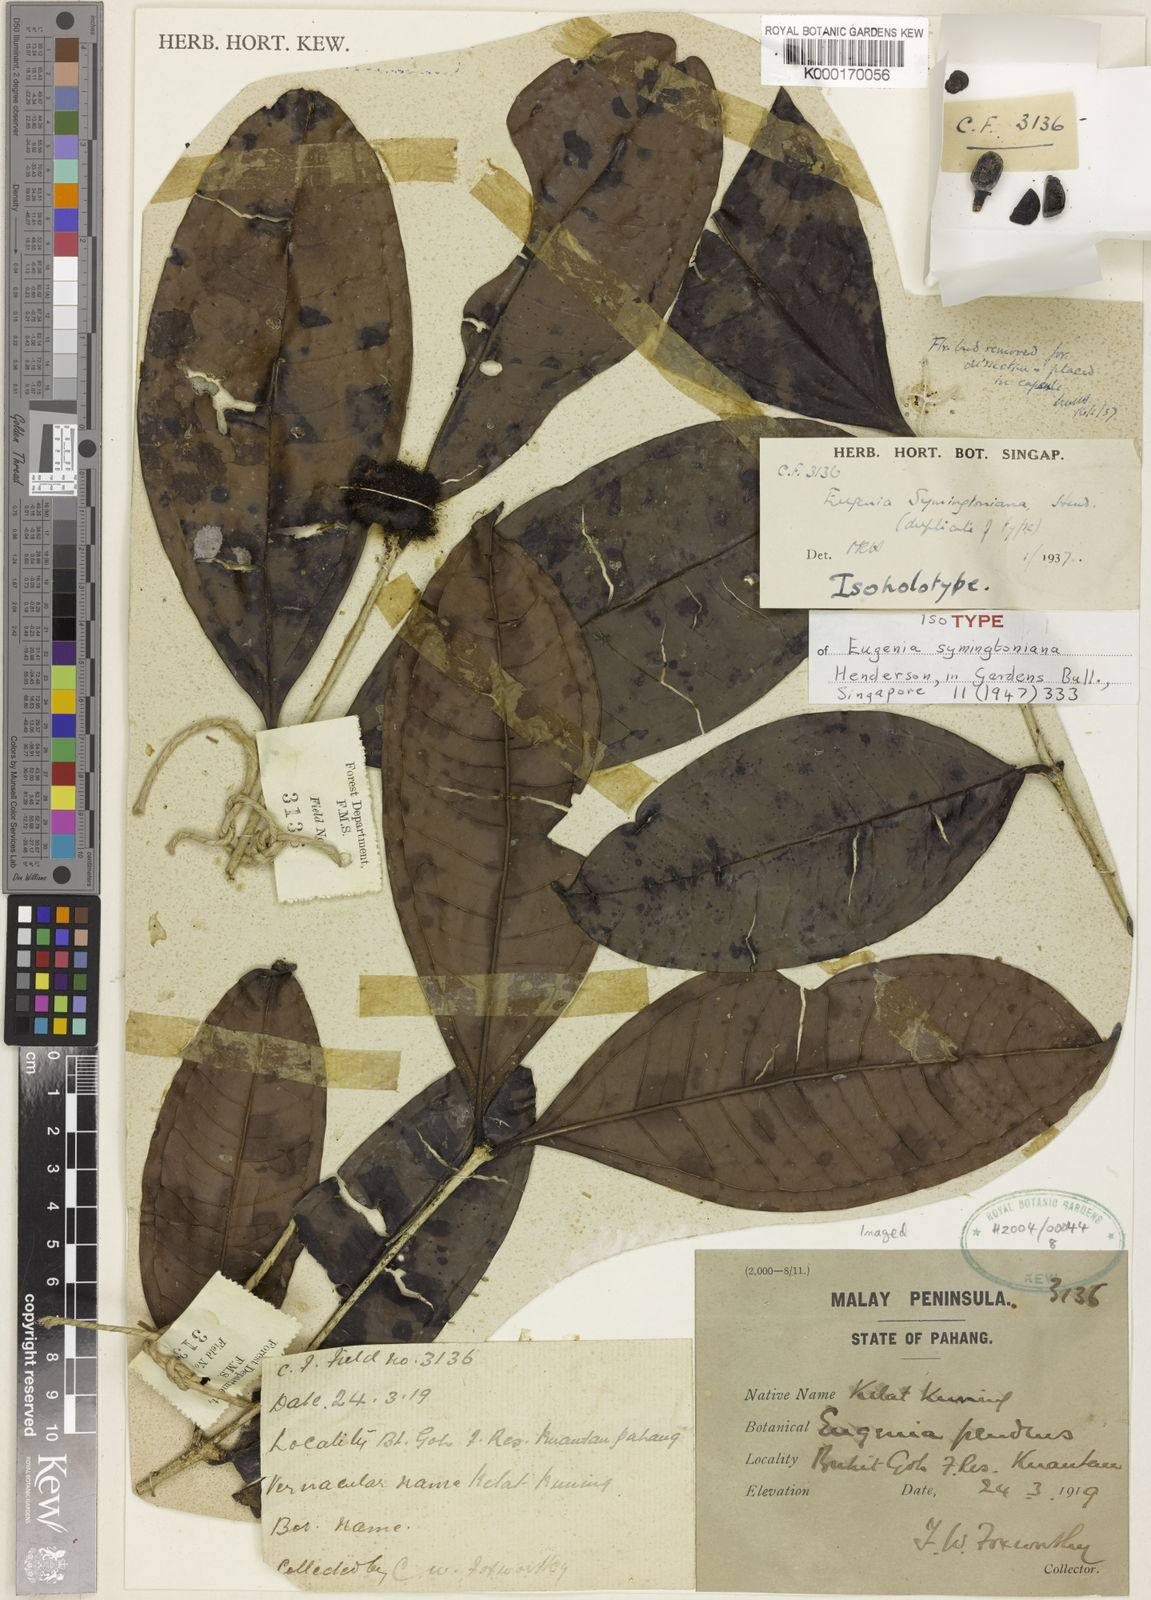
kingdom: Plantae
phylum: Tracheophyta
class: Magnoliopsida
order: Myrtales
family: Myrtaceae
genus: Syzygium
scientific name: Syzygium symingtonianum
